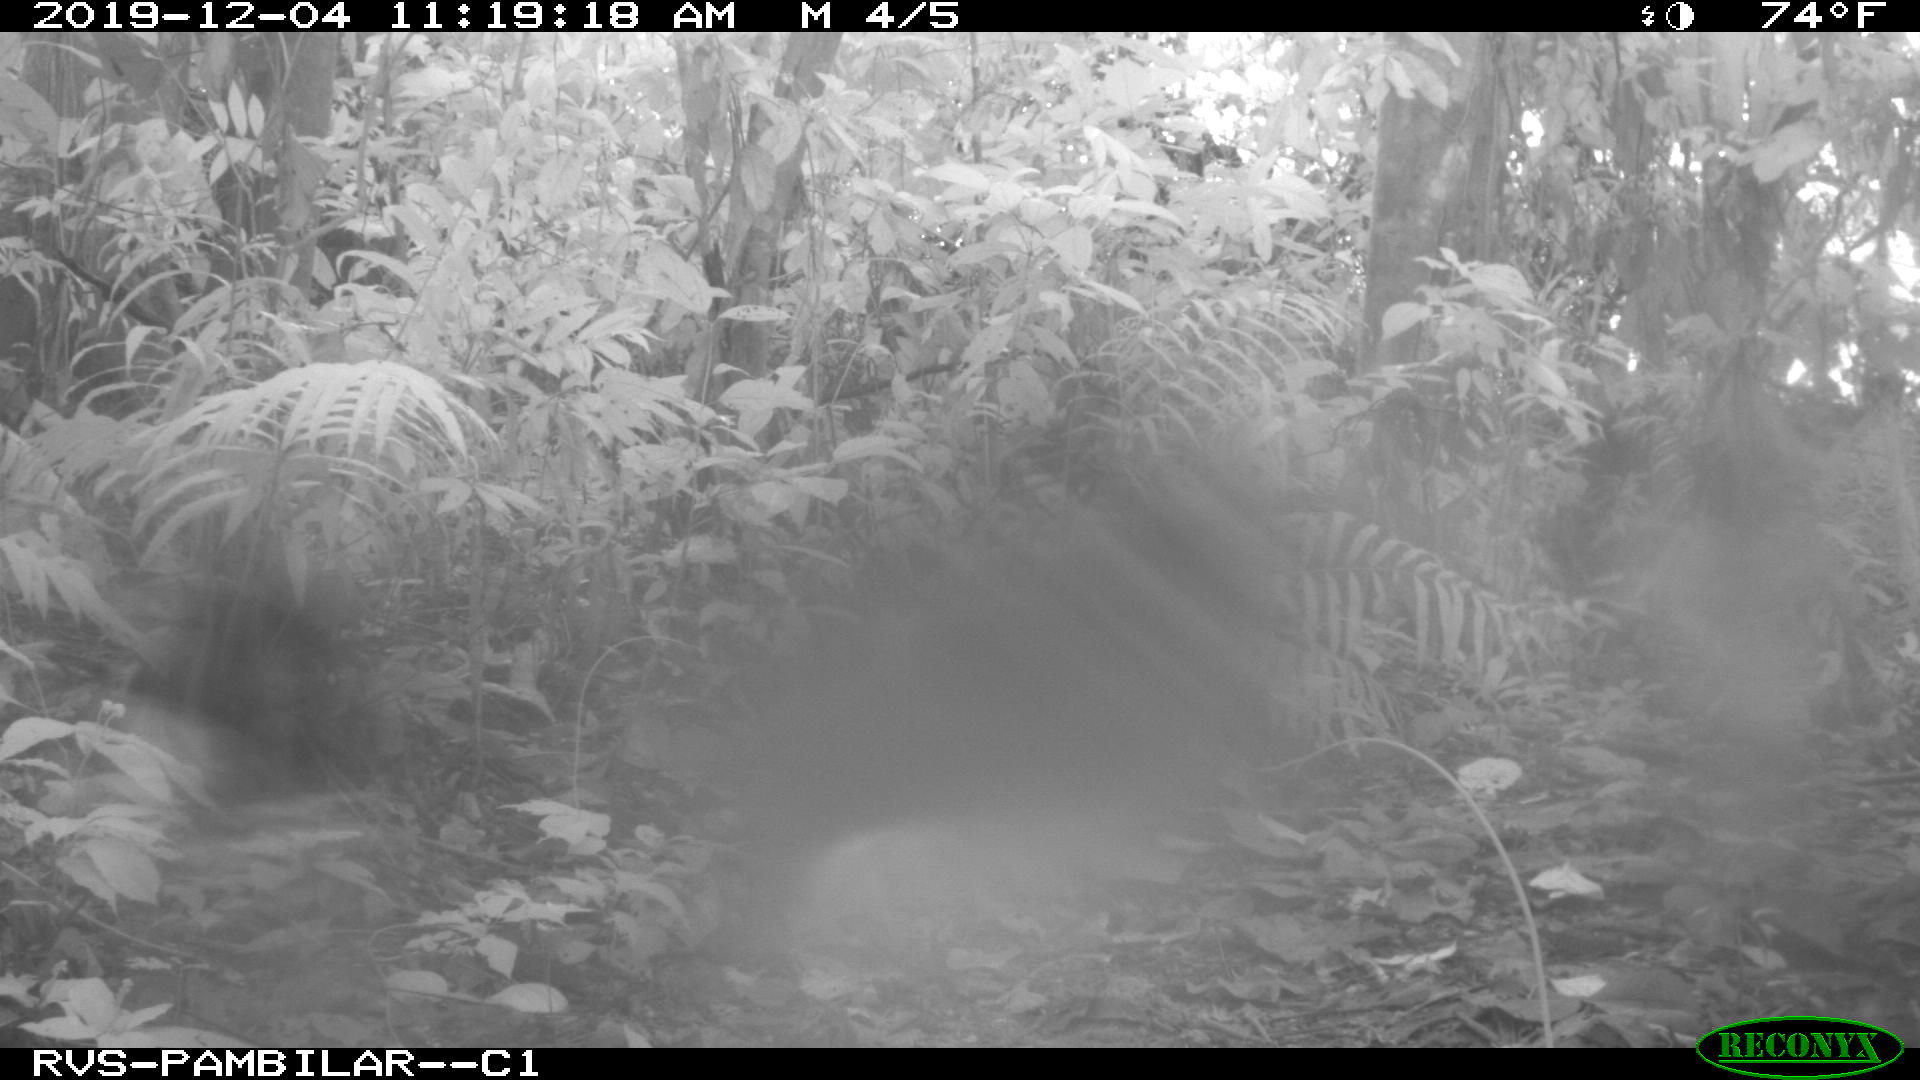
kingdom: Animalia
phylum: Chordata
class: Mammalia
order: Artiodactyla
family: Tayassuidae
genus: Pecari
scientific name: Pecari tajacu
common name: Collared peccary
